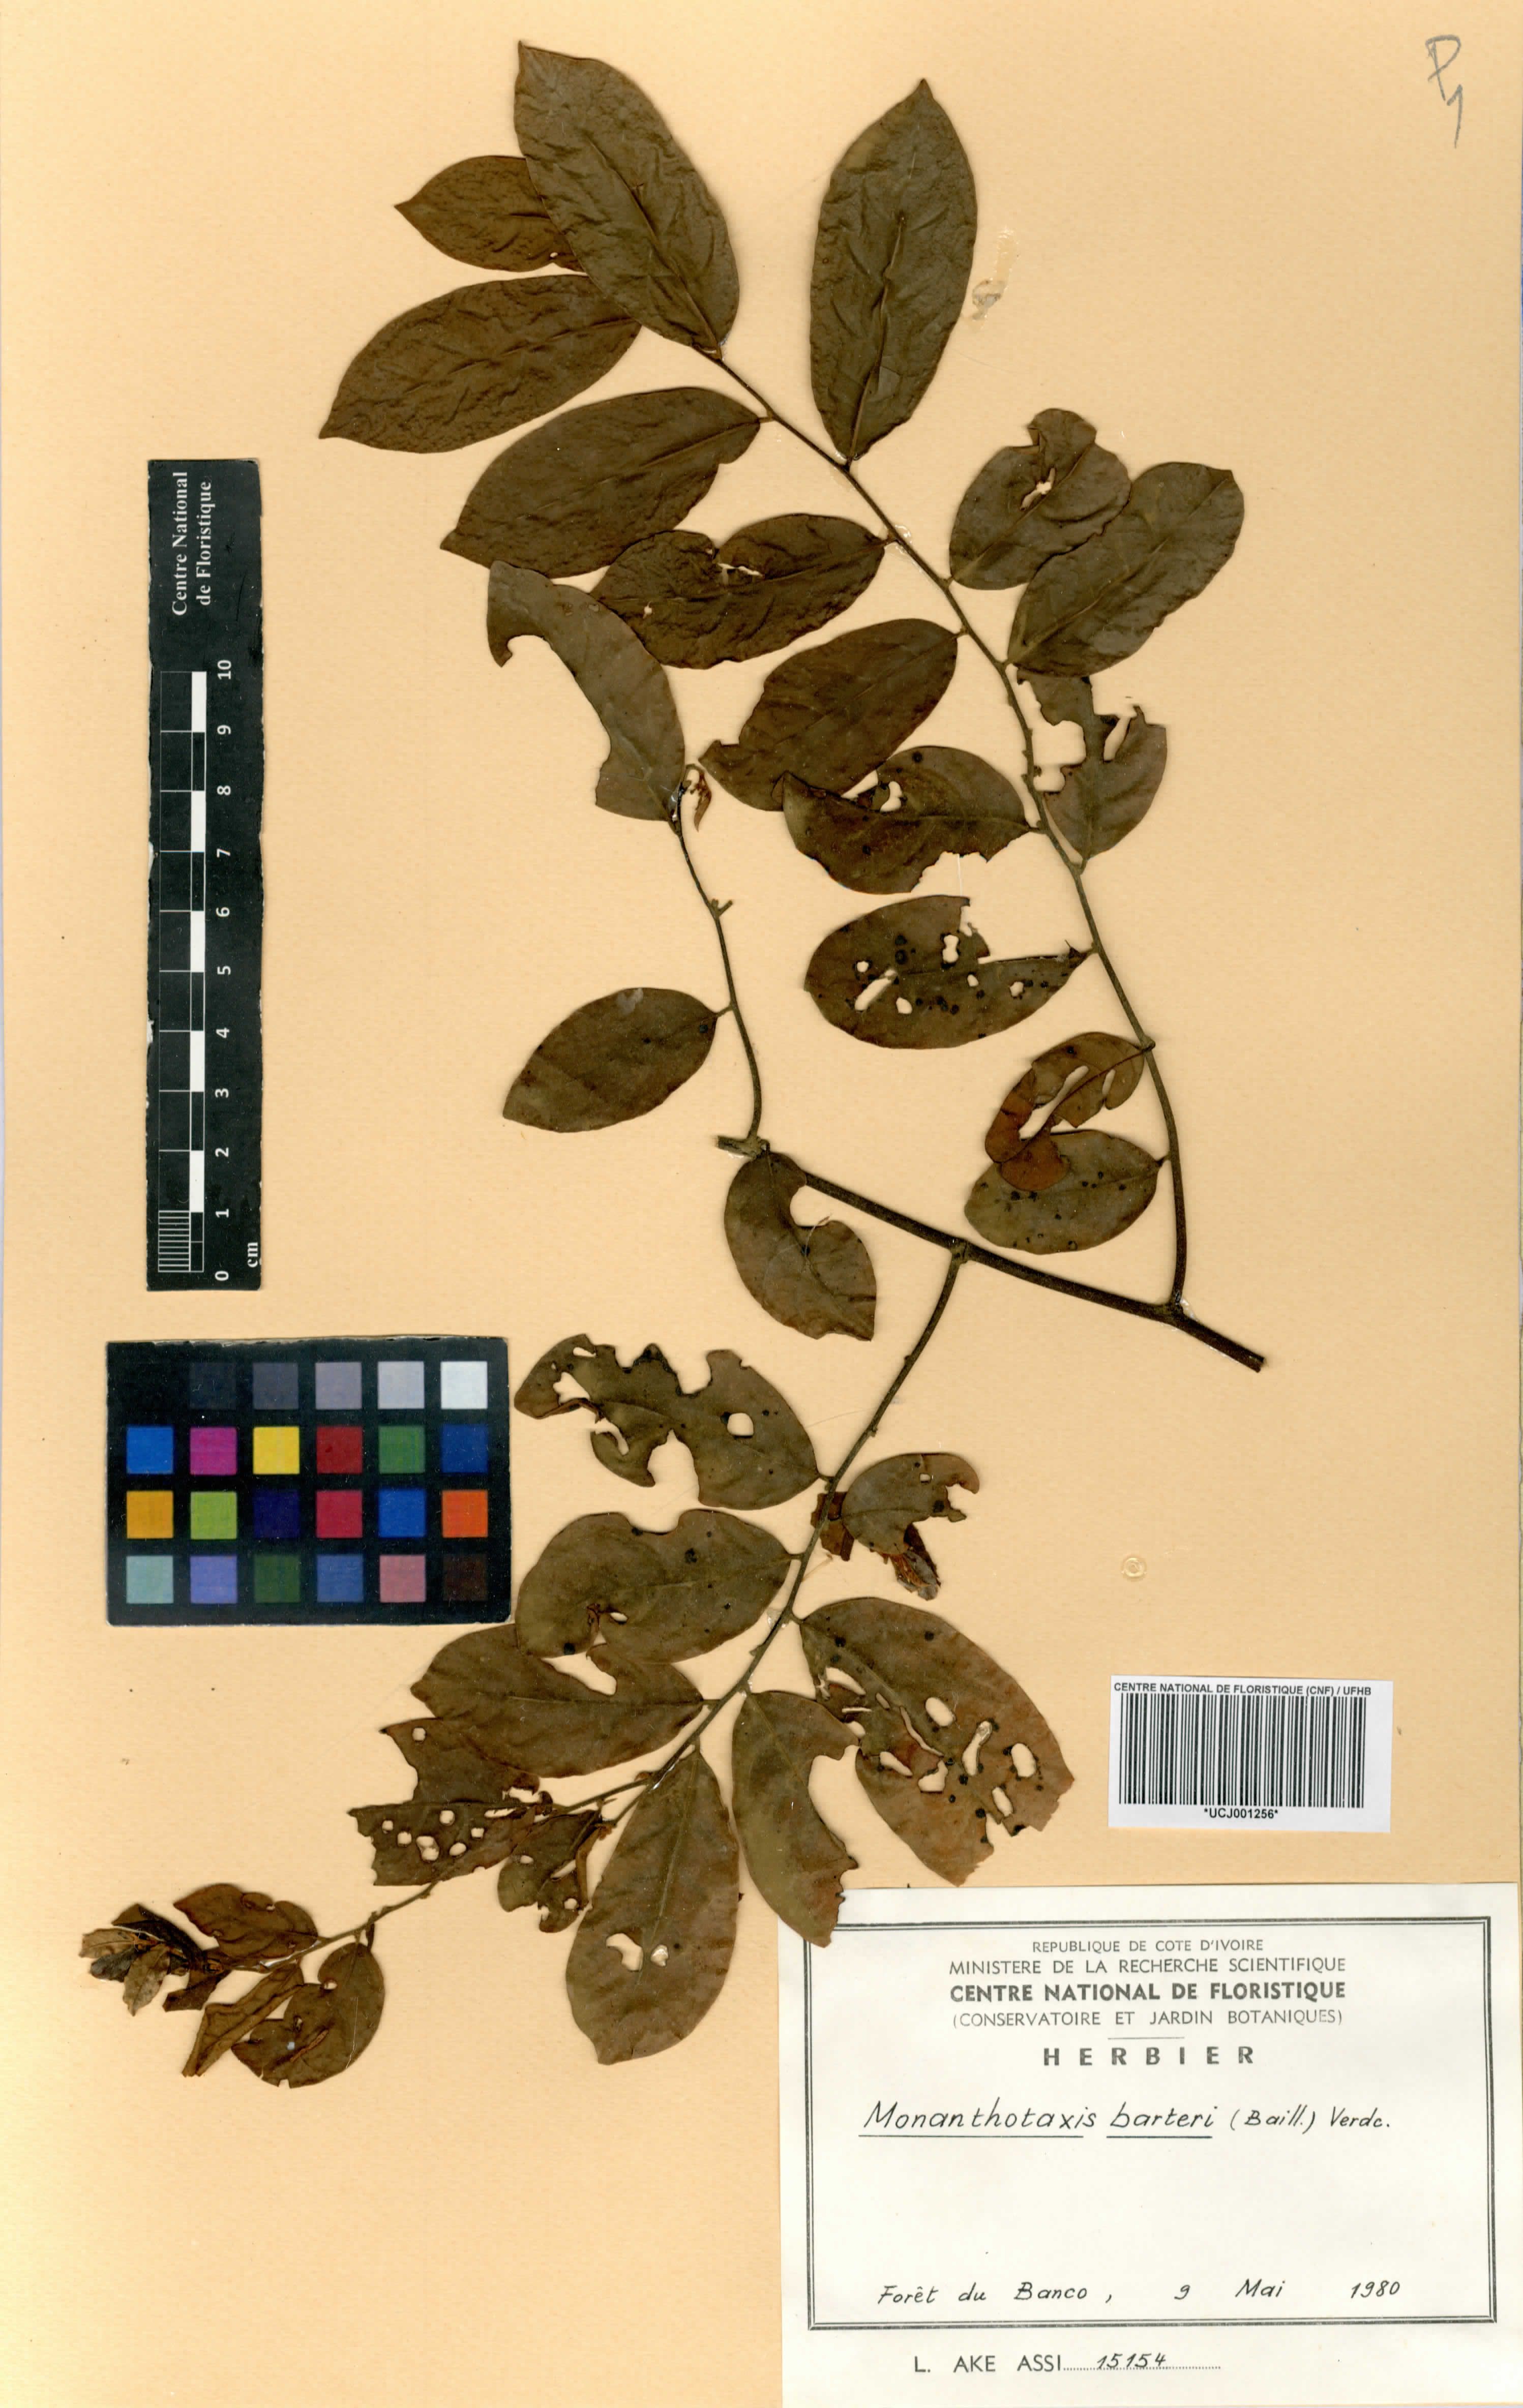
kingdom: Plantae
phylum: Tracheophyta
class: Magnoliopsida
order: Magnoliales
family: Annonaceae
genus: Monanthotaxis
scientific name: Monanthotaxis barteri
